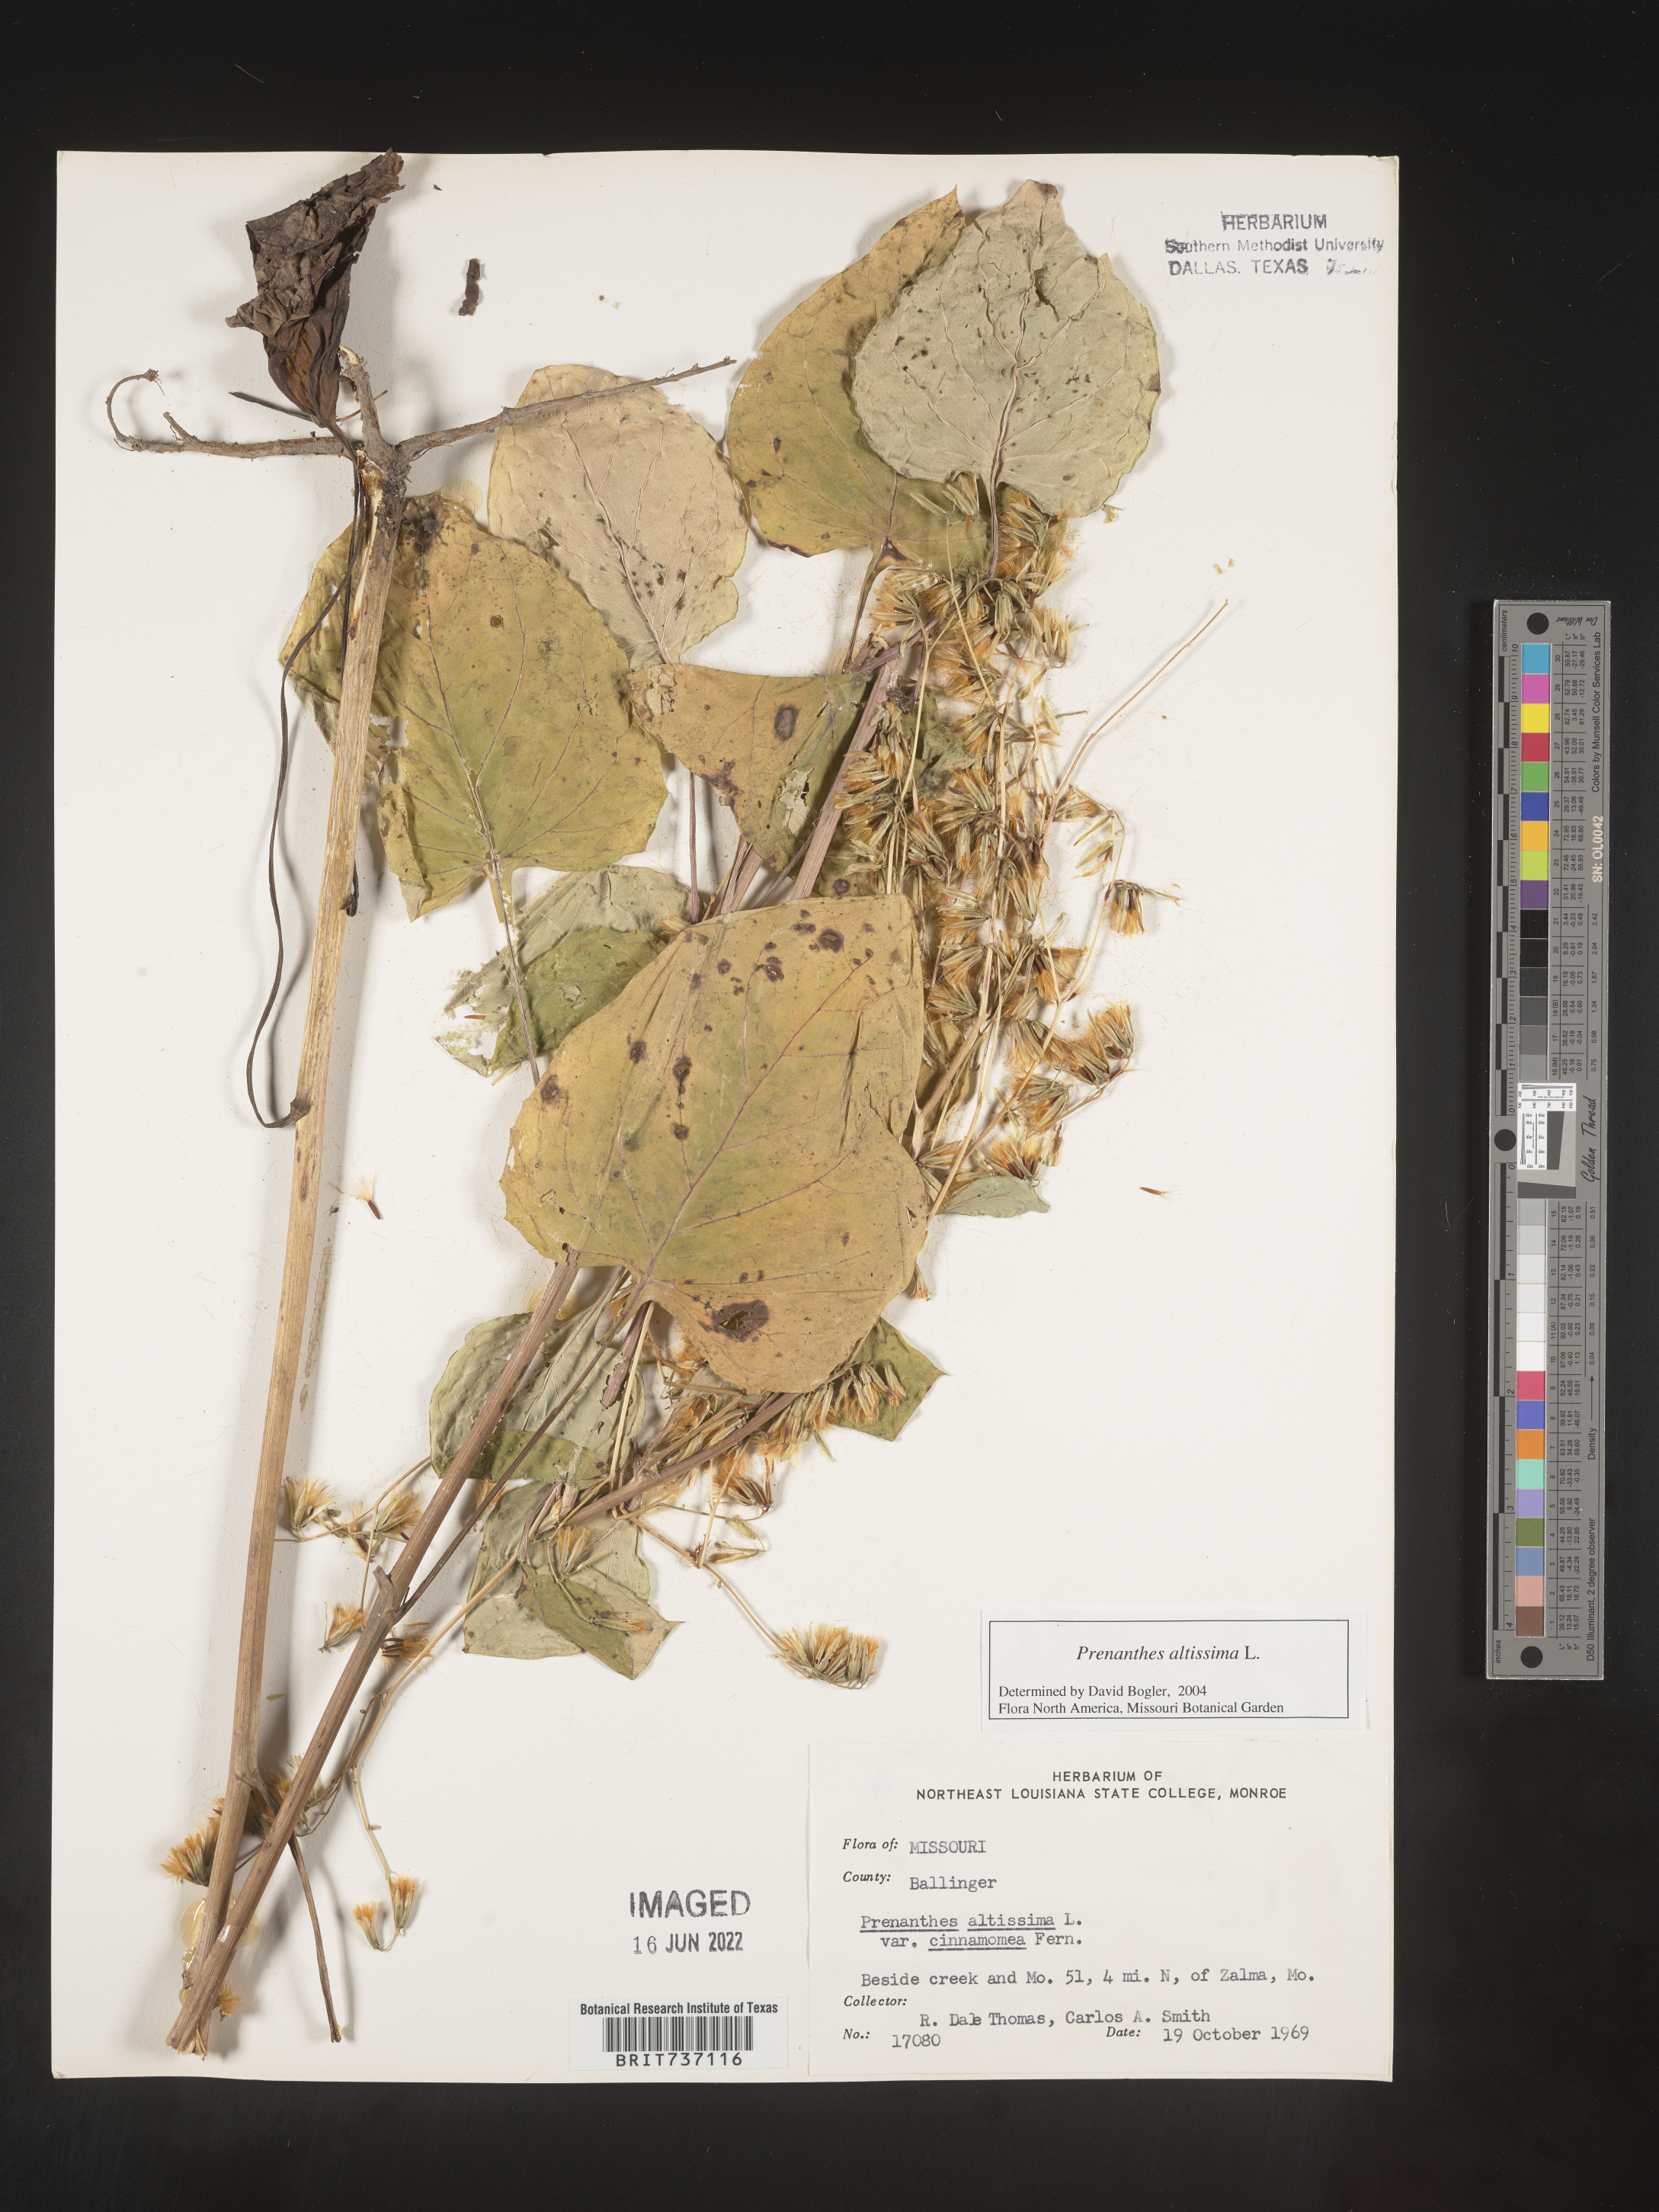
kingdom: Plantae
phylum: Tracheophyta
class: Magnoliopsida
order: Asterales
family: Asteraceae
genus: Lactuca
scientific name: Lactuca quercina
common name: Wild lettuce
